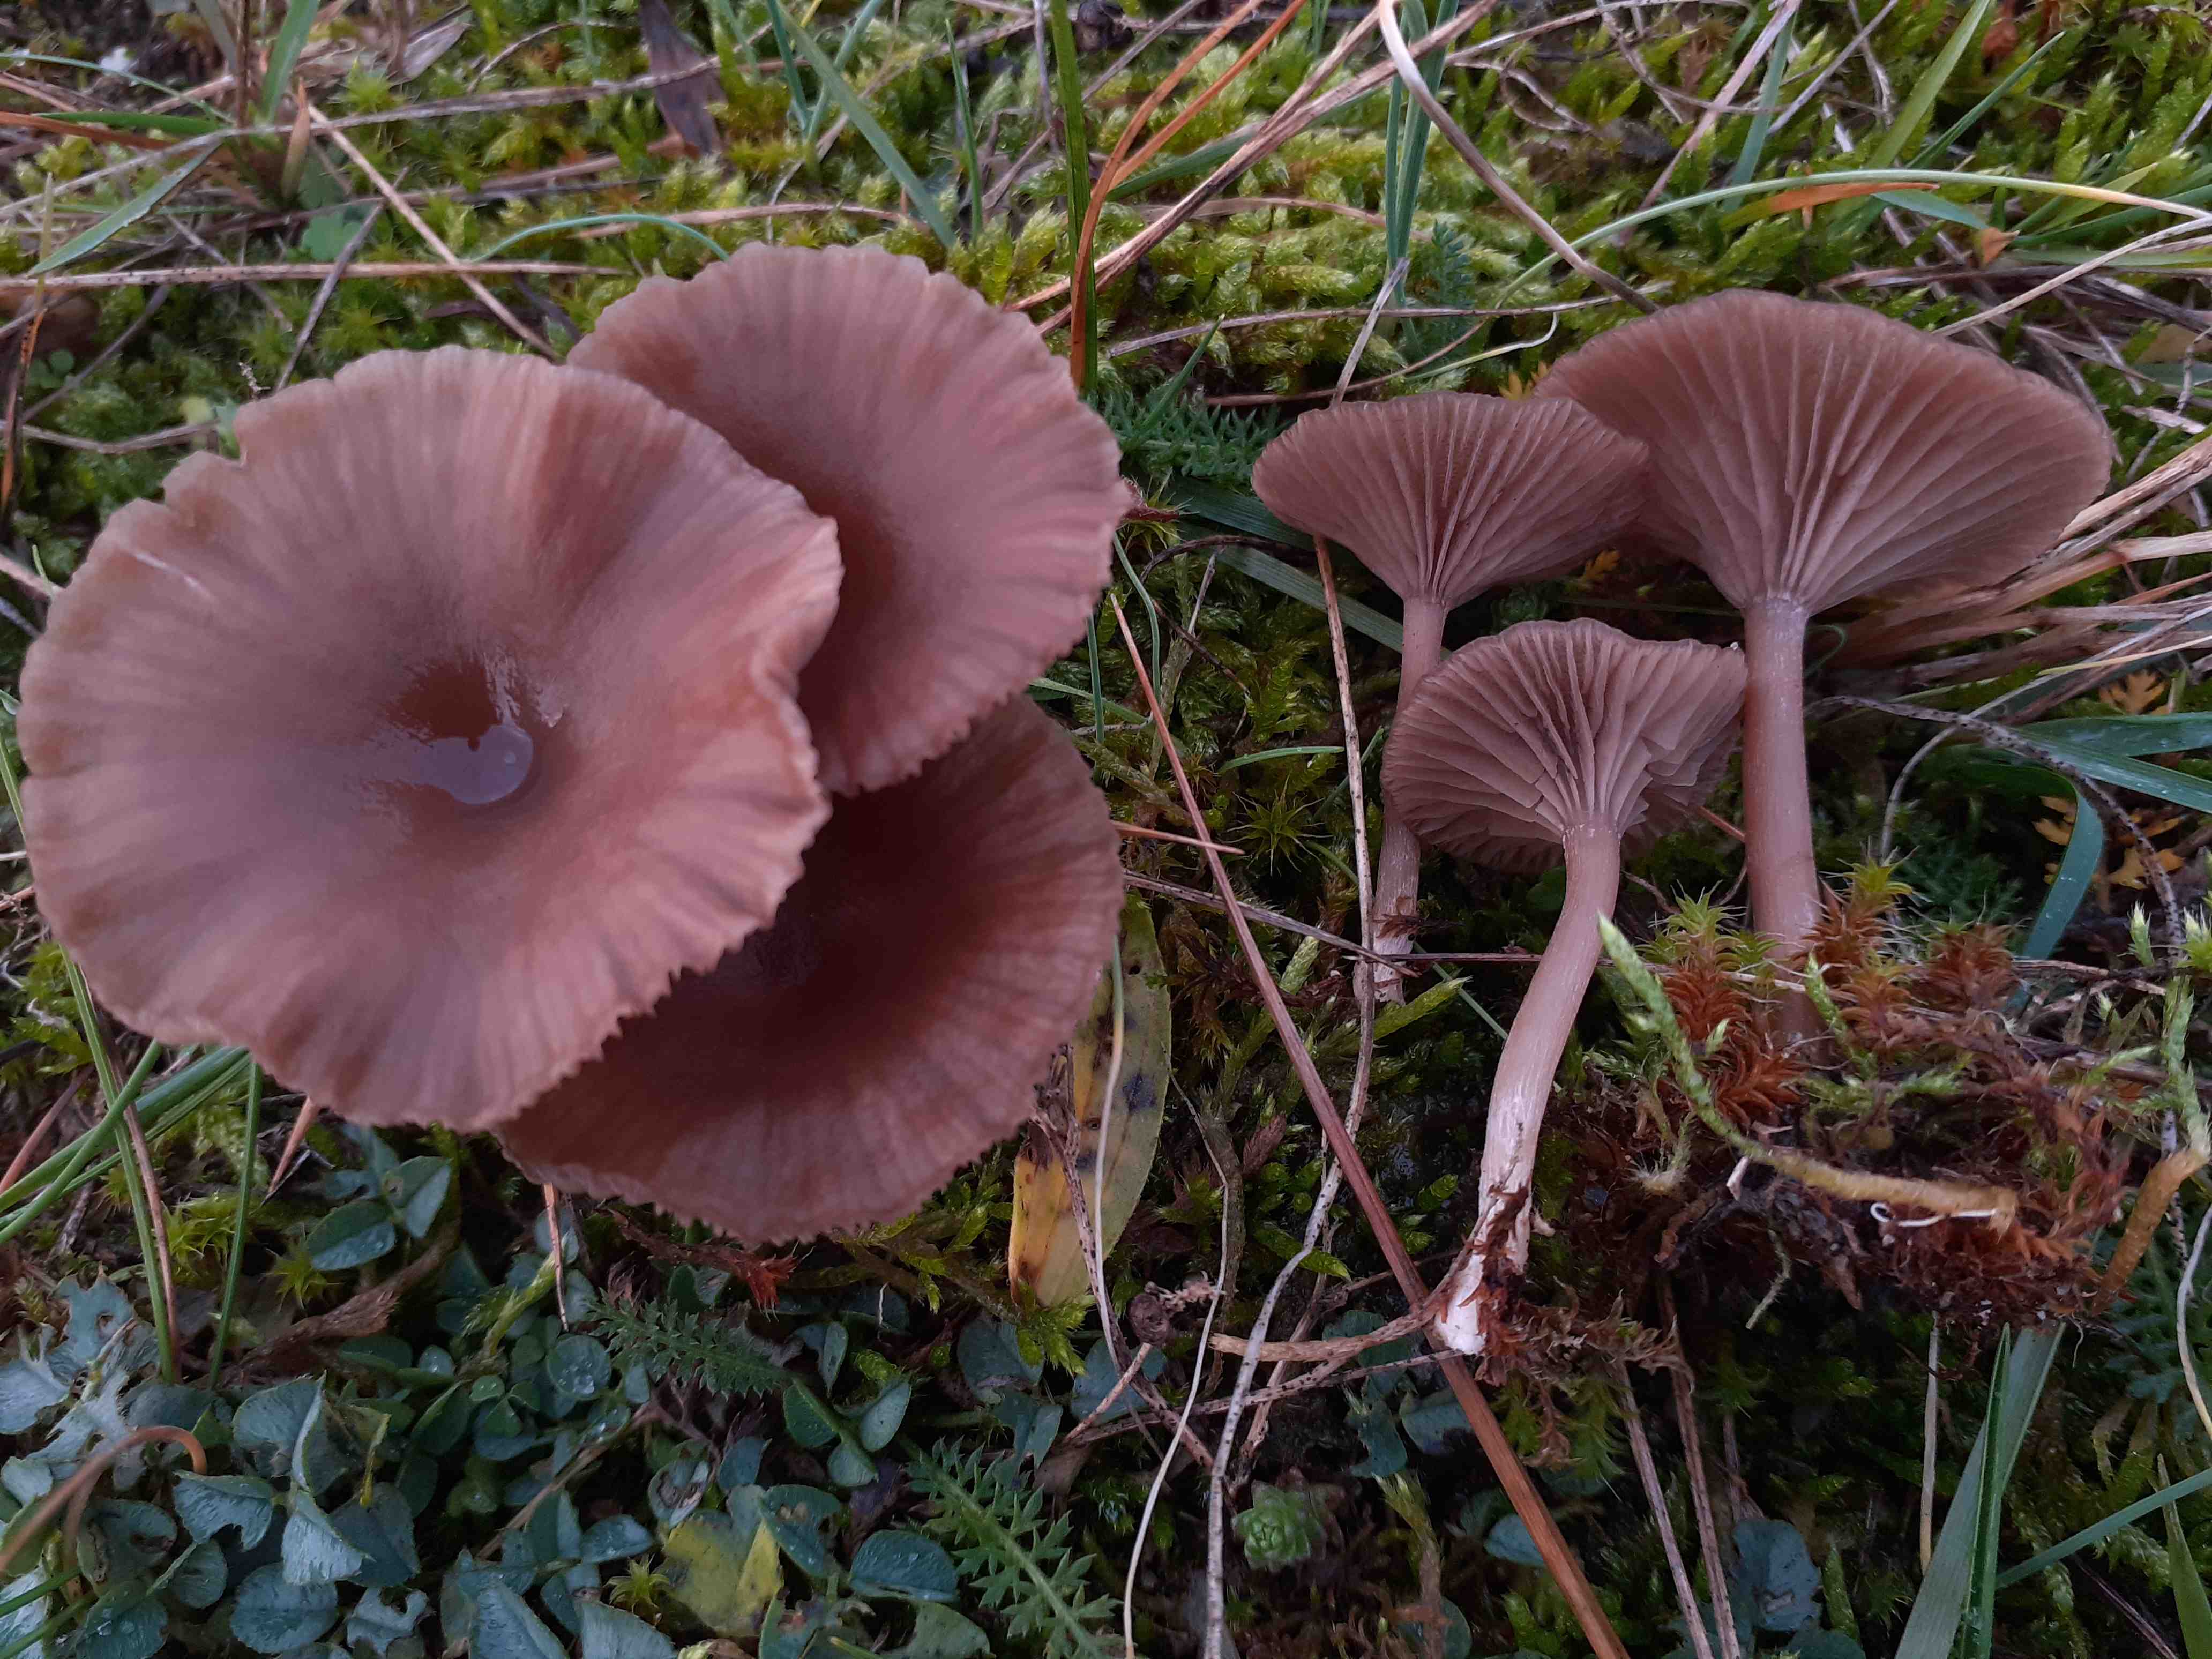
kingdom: Fungi
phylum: Basidiomycota
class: Agaricomycetes
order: Agaricales
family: Pseudoclitocybaceae
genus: Pseudoclitocybe
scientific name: Pseudoclitocybe expallens
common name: lille bægertragthat
